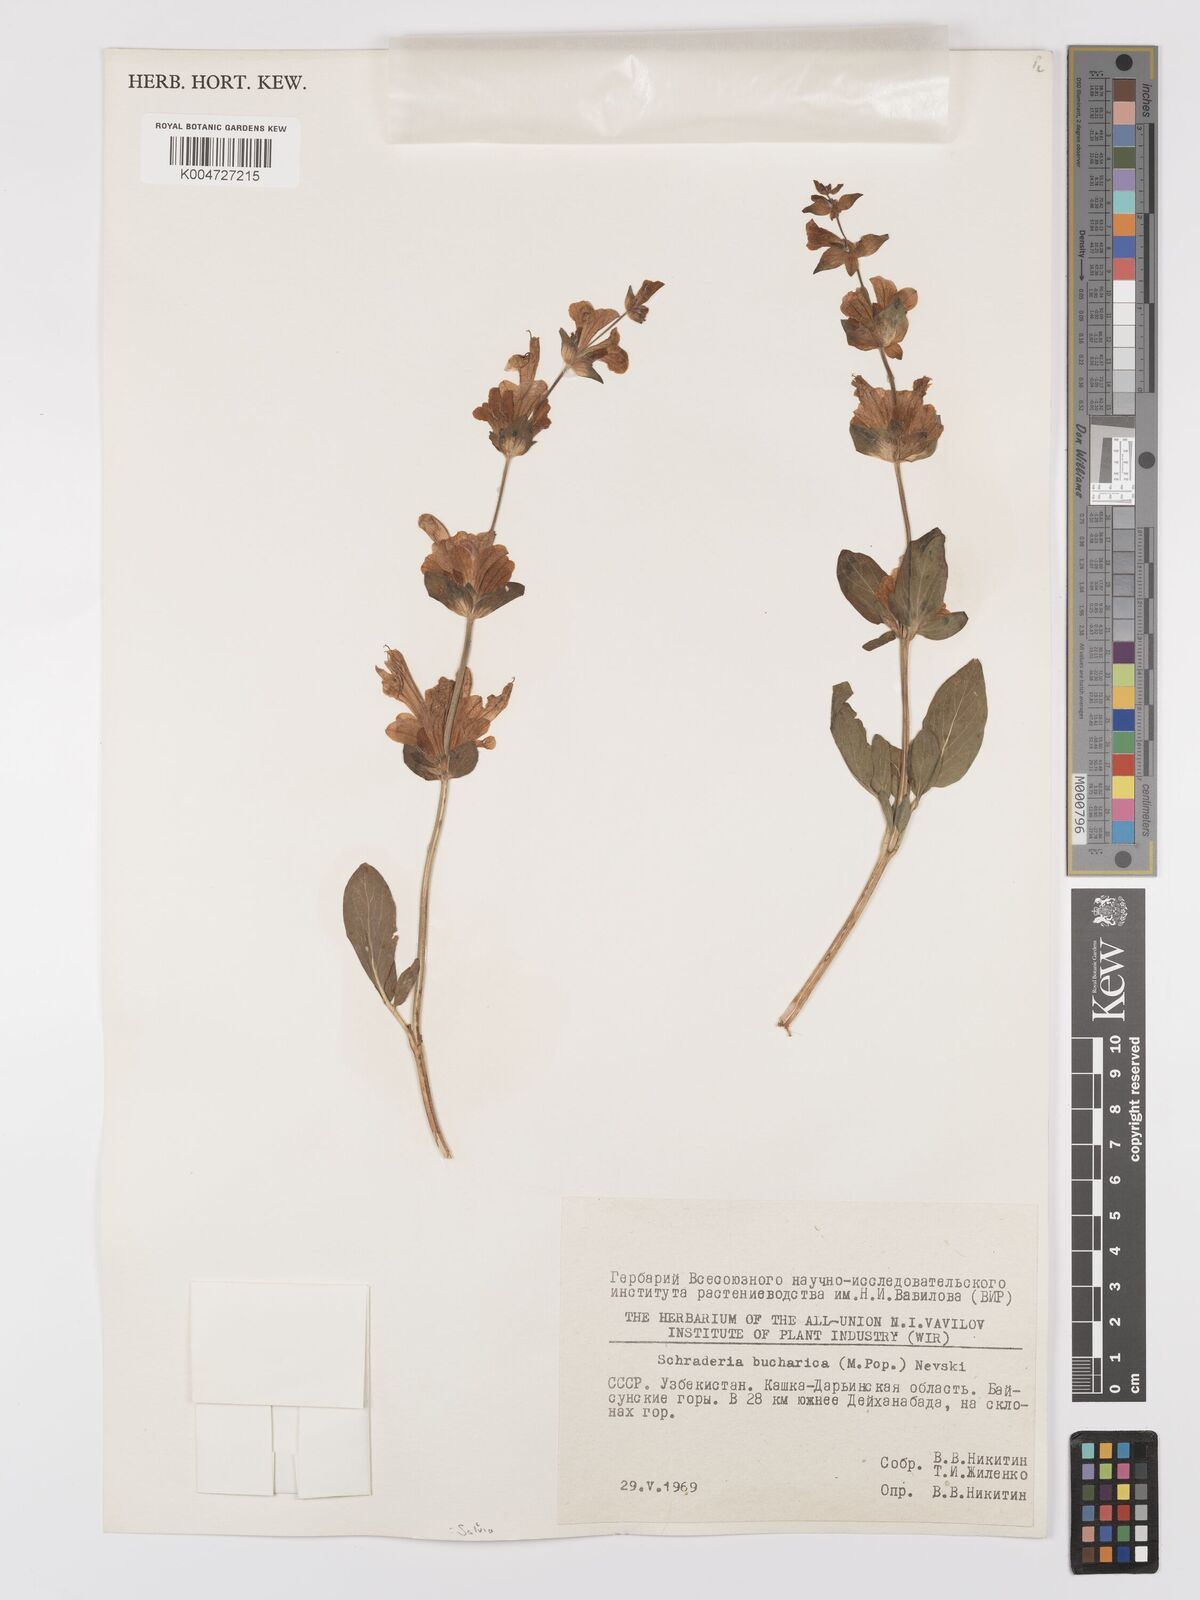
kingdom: Plantae
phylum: Tracheophyta
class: Magnoliopsida
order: Lamiales
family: Lamiaceae
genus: Salvia
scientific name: Salvia bucharica
